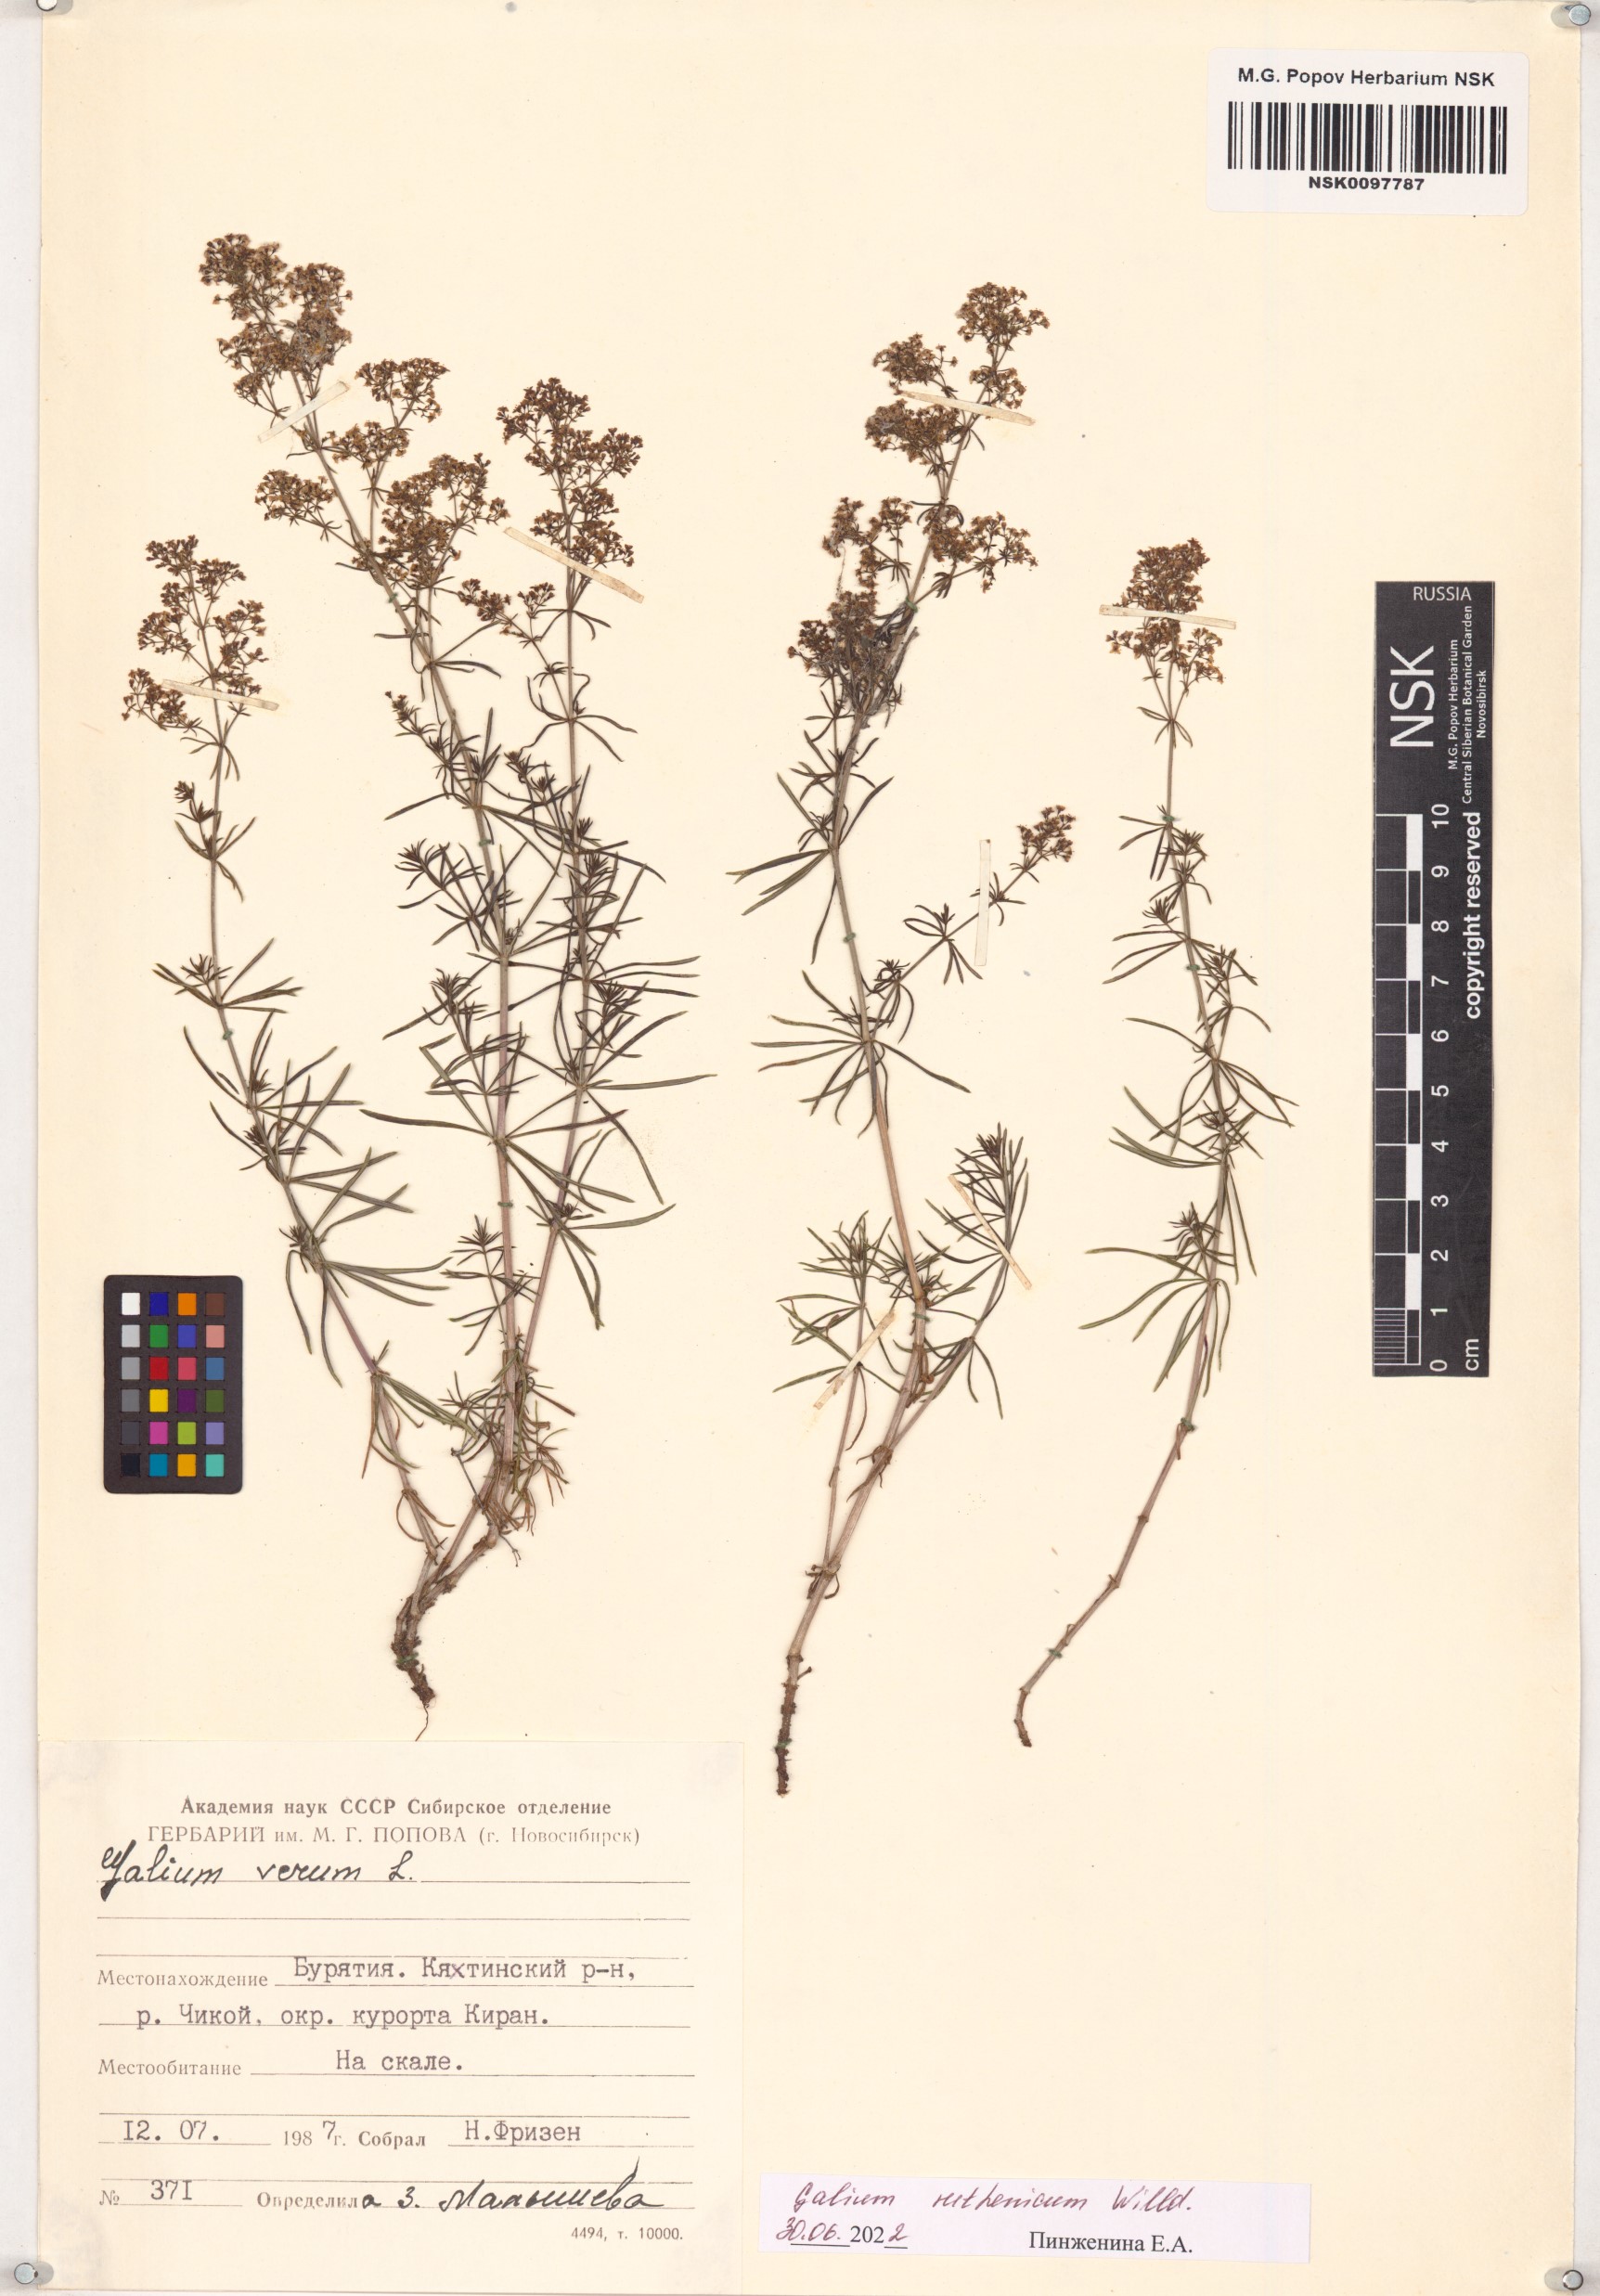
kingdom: Plantae
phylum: Tracheophyta
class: Magnoliopsida
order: Gentianales
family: Rubiaceae
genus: Galium
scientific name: Galium verum
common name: Lady's bedstraw
